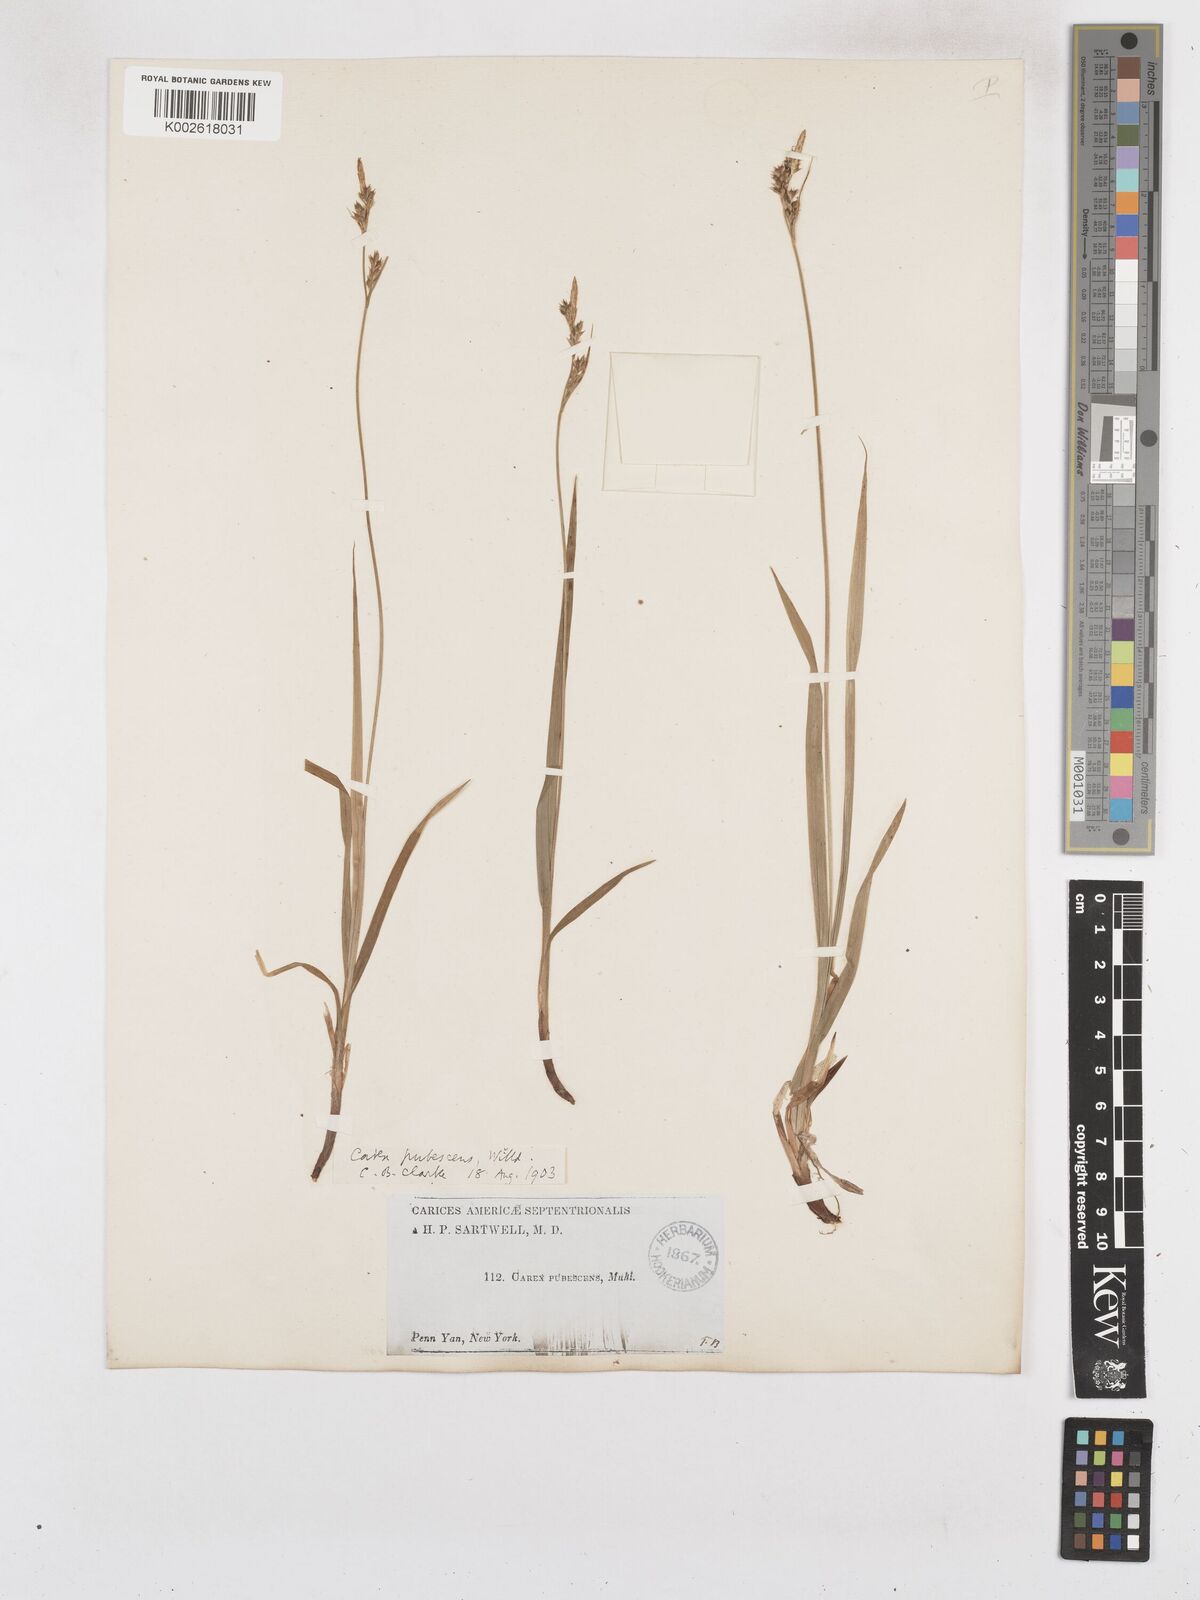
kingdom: Plantae
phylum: Tracheophyta
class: Liliopsida
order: Poales
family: Cyperaceae
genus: Carex
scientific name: Carex hirtifolia
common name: Hairy sedge
